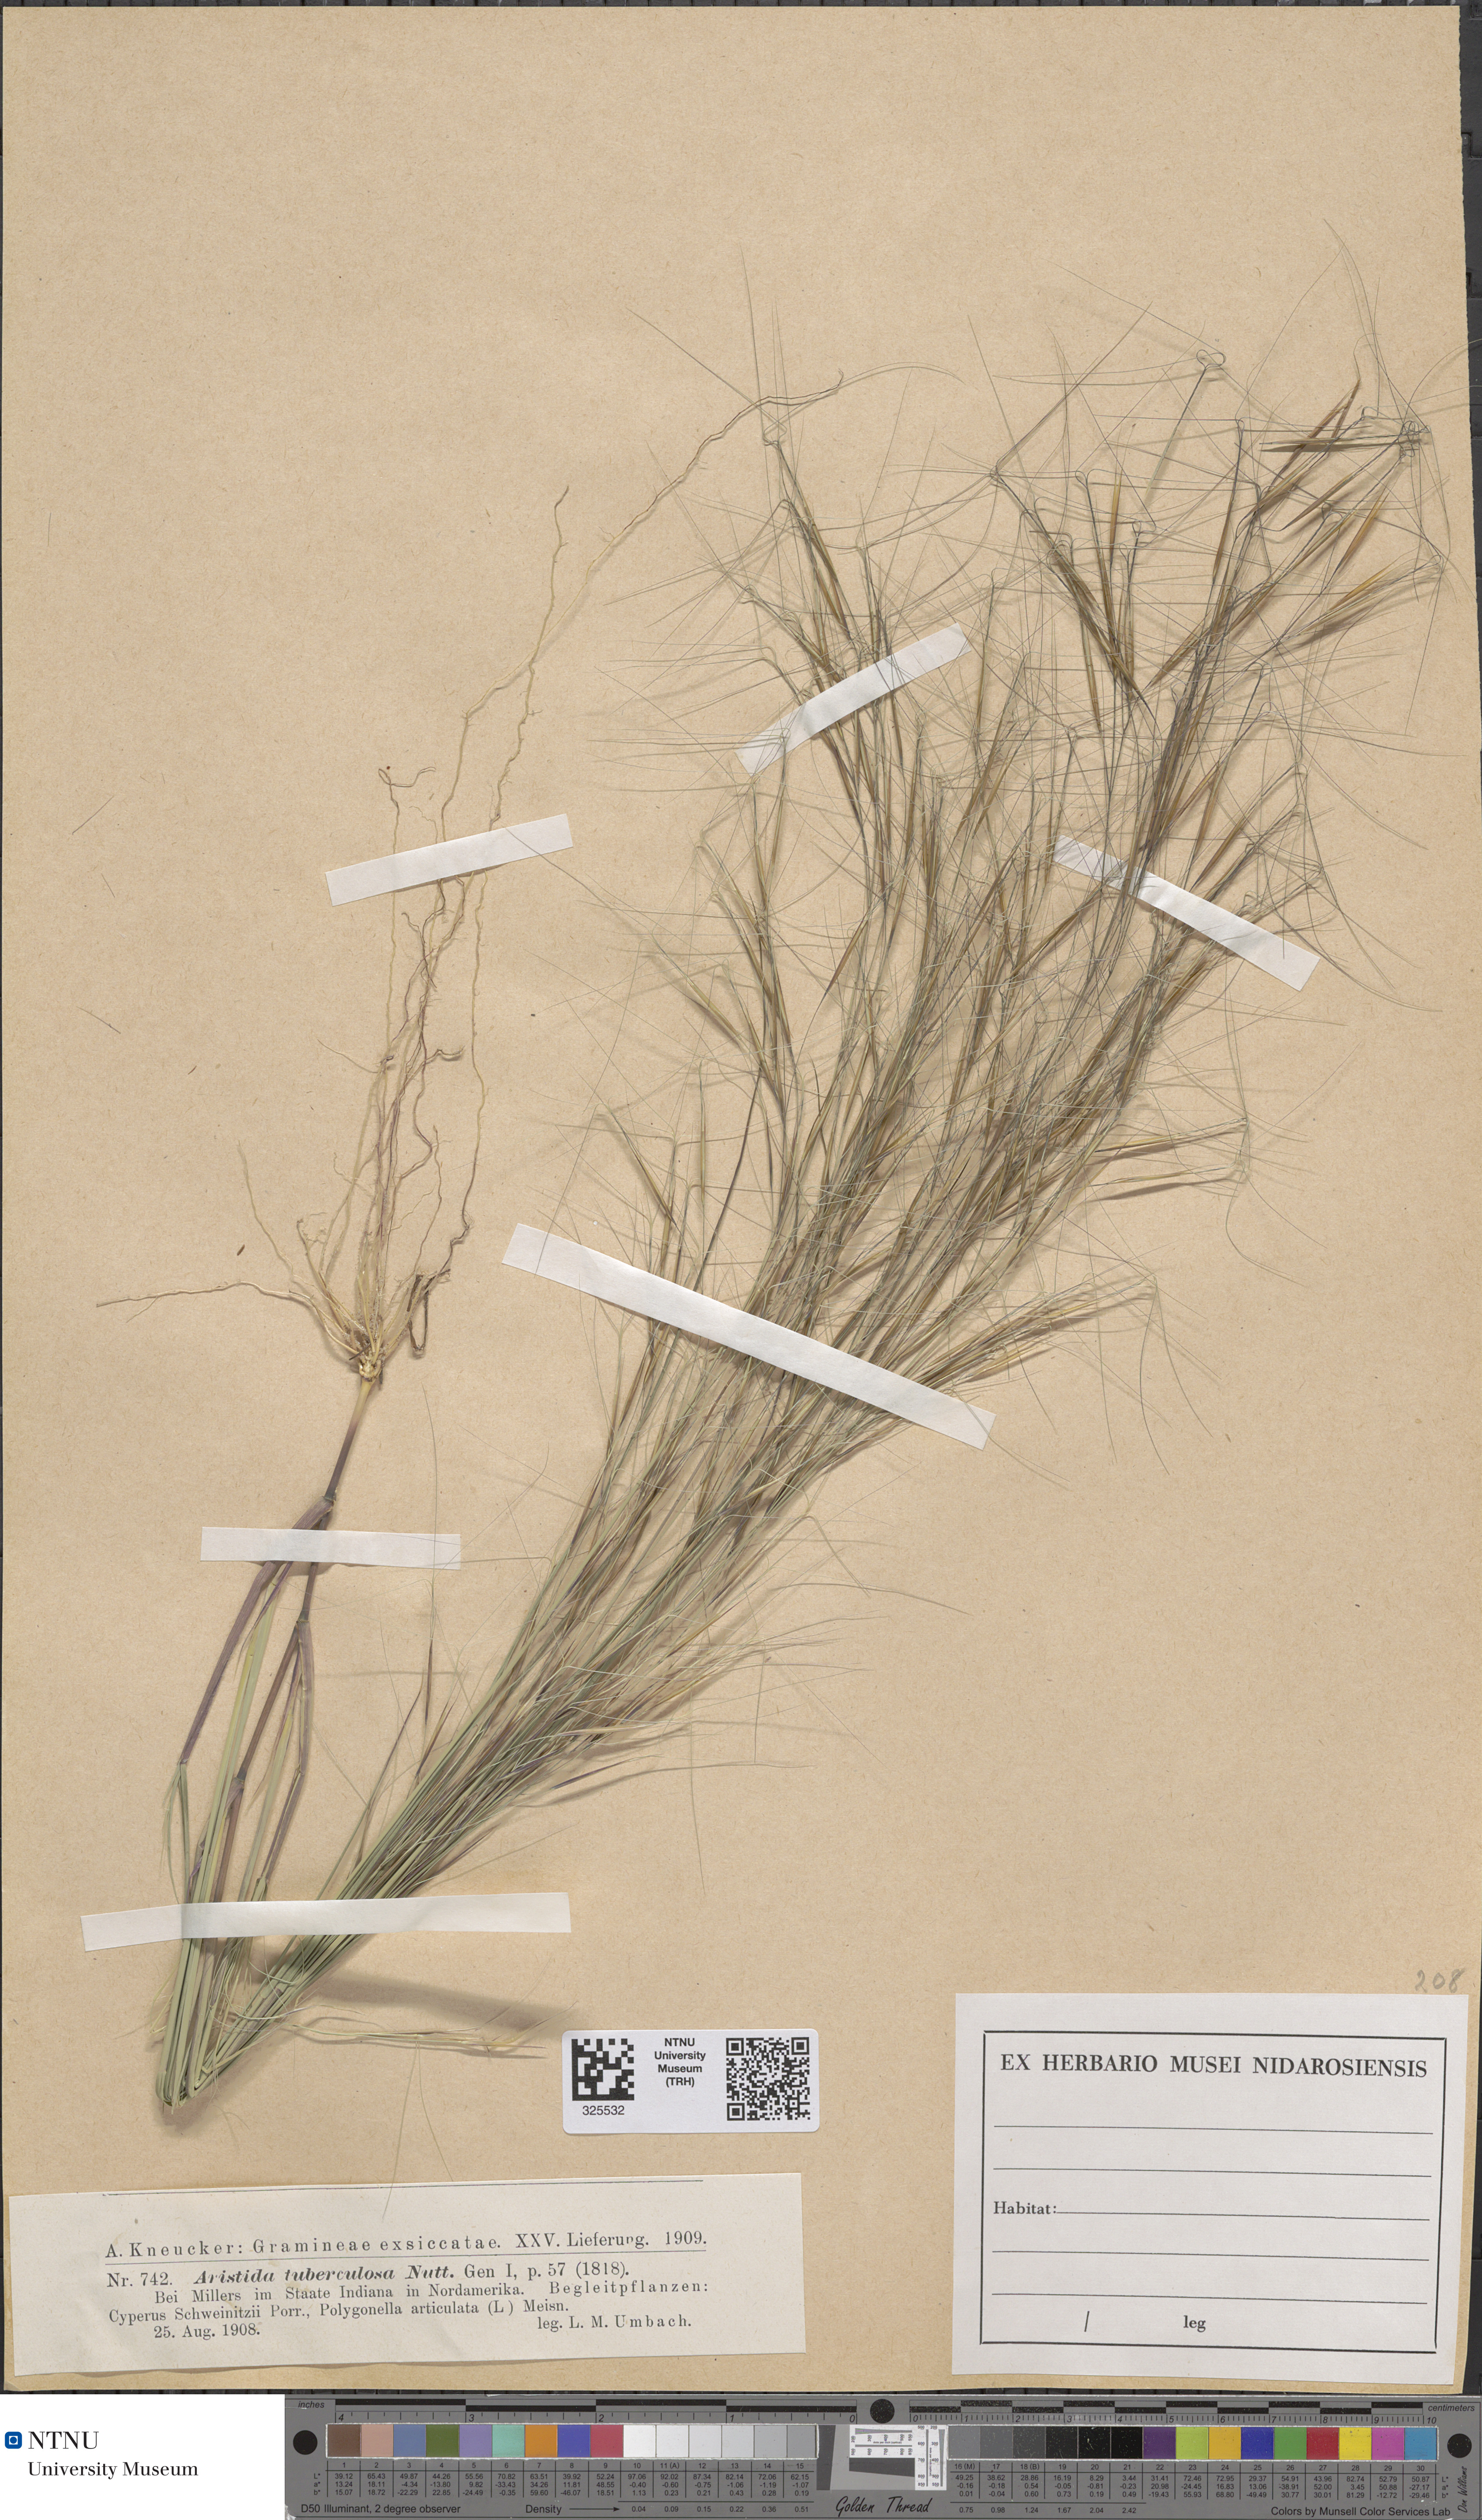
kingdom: Plantae
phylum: Tracheophyta
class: Liliopsida
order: Poales
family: Poaceae
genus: Aristida
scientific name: Aristida tuberculosa
